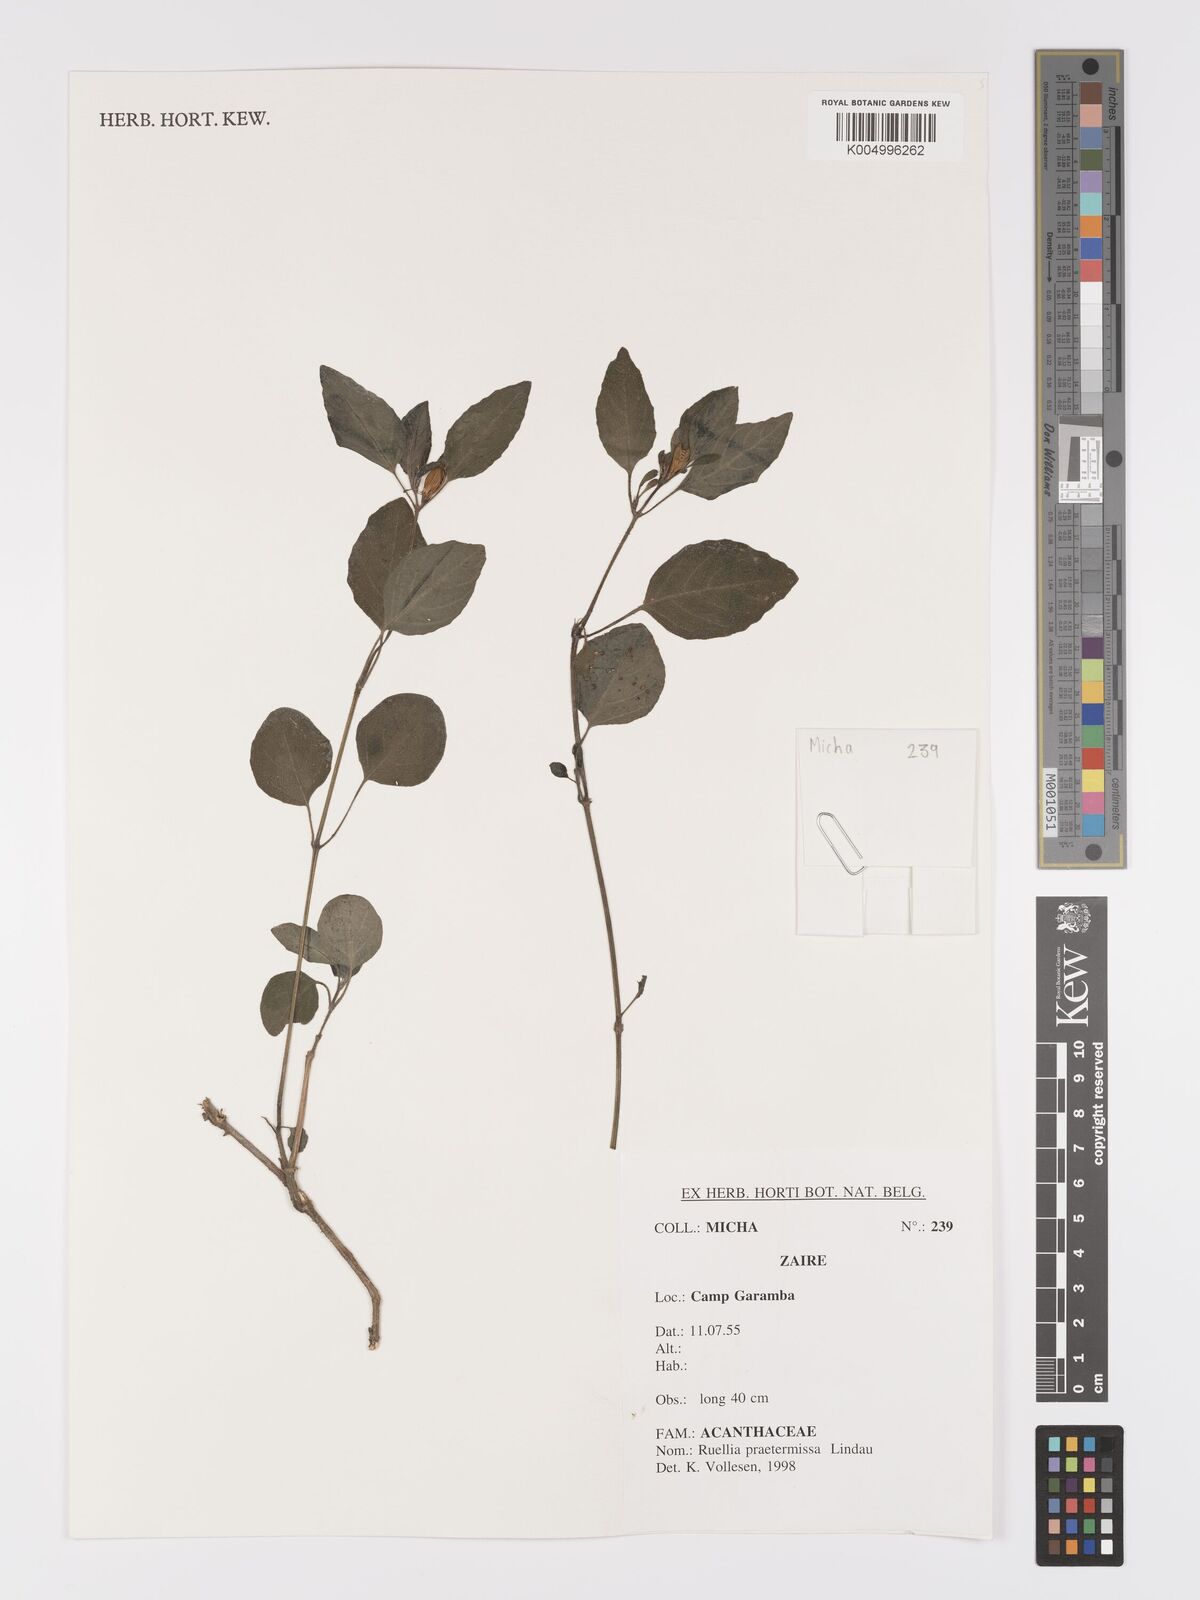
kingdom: Plantae
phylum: Tracheophyta
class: Magnoliopsida
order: Lamiales
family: Acanthaceae
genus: Ruellia
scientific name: Ruellia praetermissa
